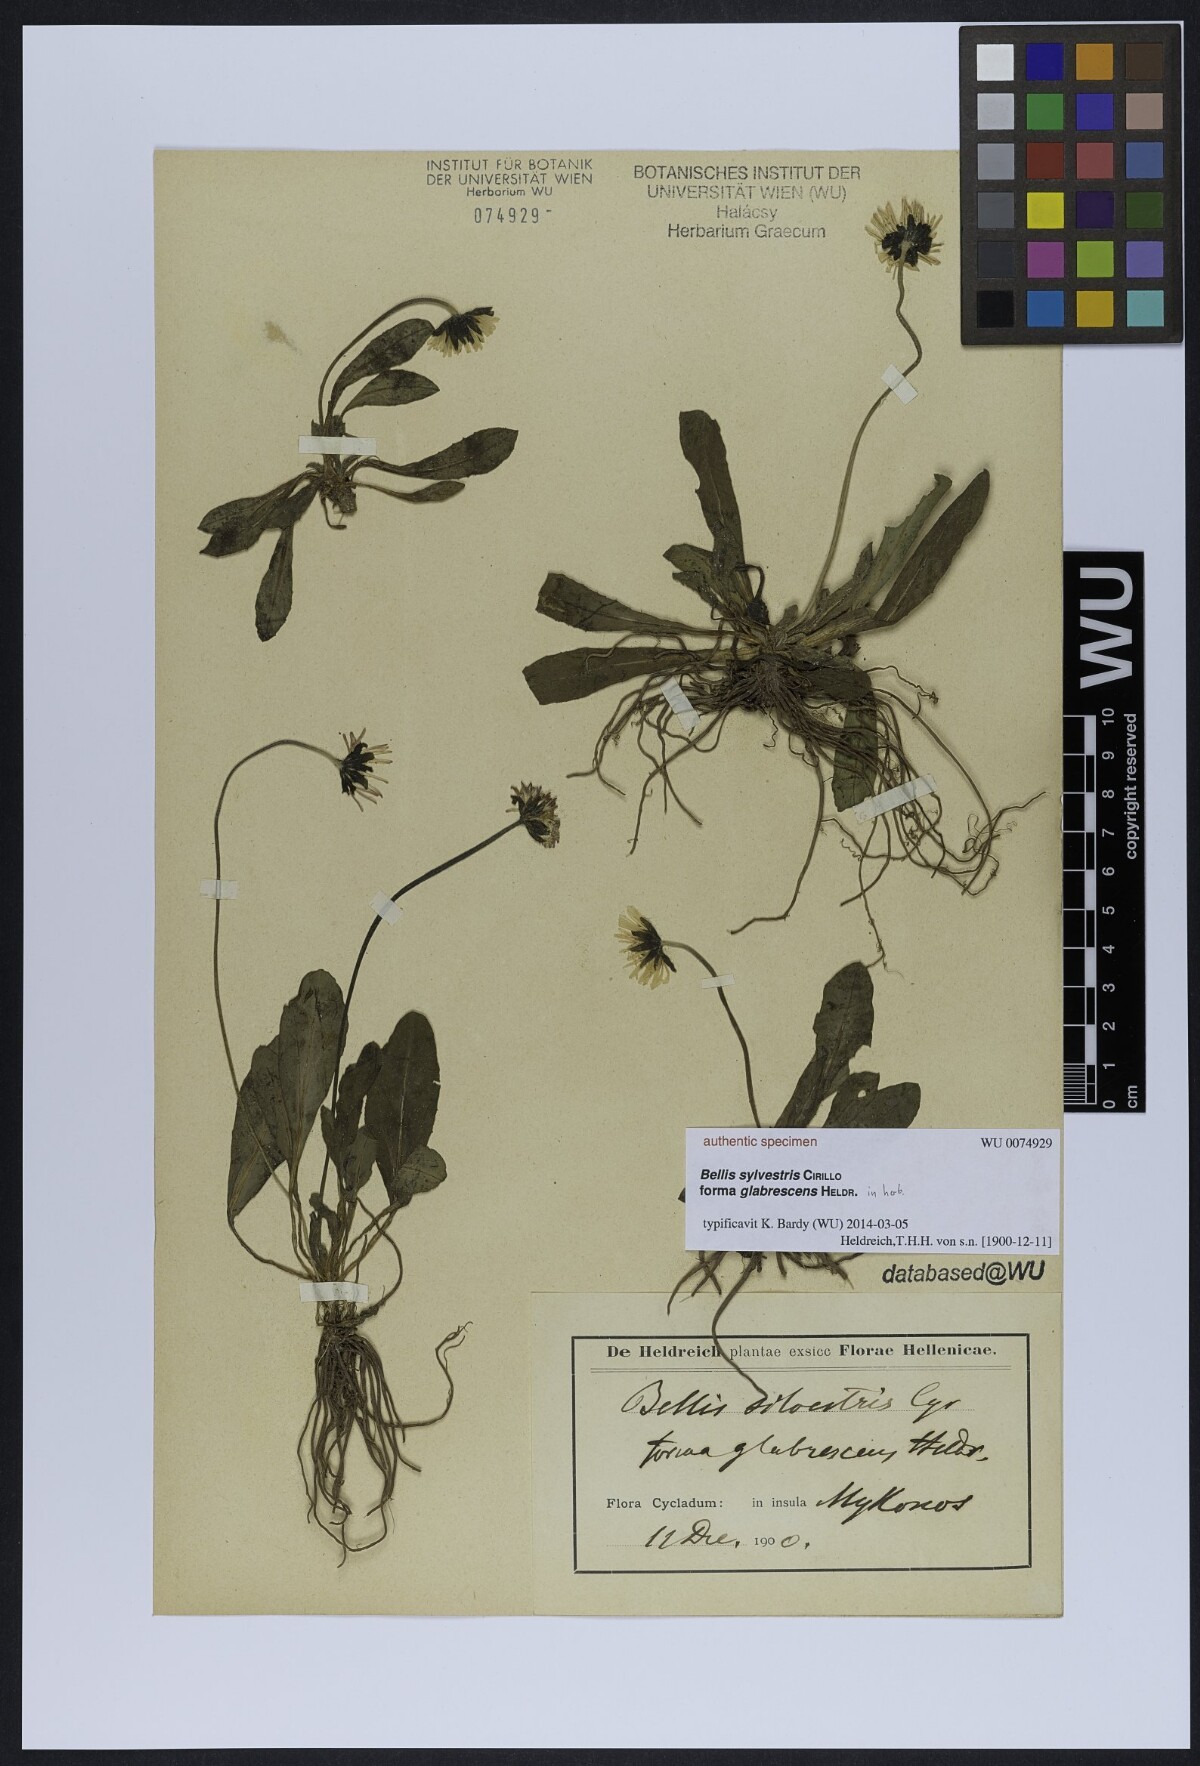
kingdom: Plantae
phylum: Tracheophyta
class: Magnoliopsida
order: Asterales
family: Asteraceae
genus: Bellis
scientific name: Bellis sylvestris
